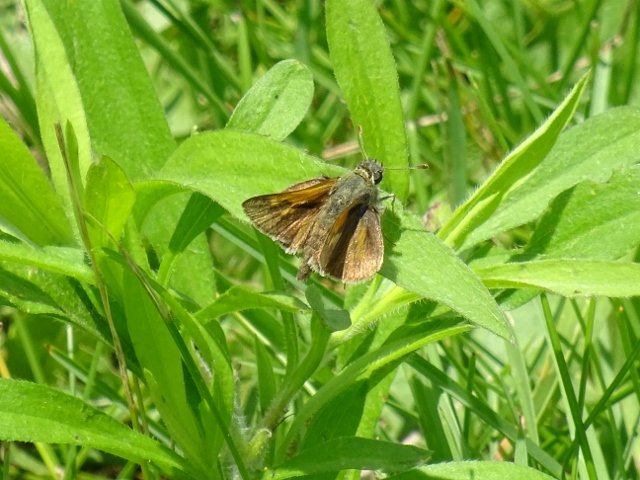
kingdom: Animalia
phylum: Arthropoda
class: Insecta
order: Lepidoptera
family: Hesperiidae
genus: Polites
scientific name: Polites themistocles
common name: Tawny-edged Skipper
